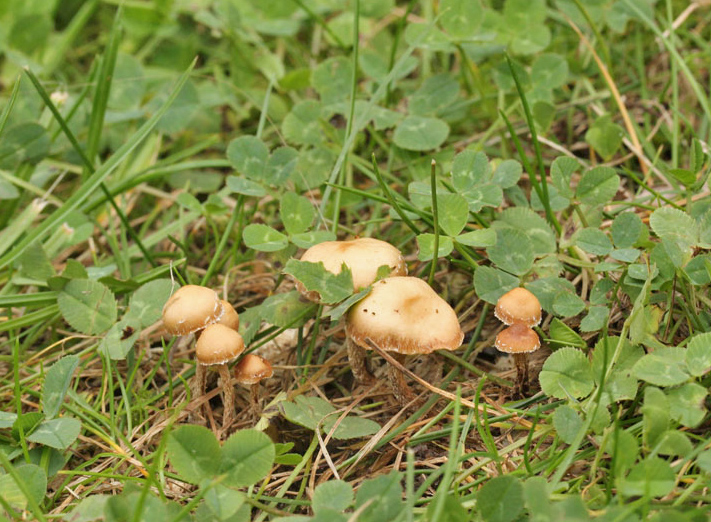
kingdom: Fungi
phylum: Basidiomycota
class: Agaricomycetes
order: Agaricales
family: Strophariaceae
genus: Deconica
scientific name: Deconica crobula
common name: træflis-stråhat
